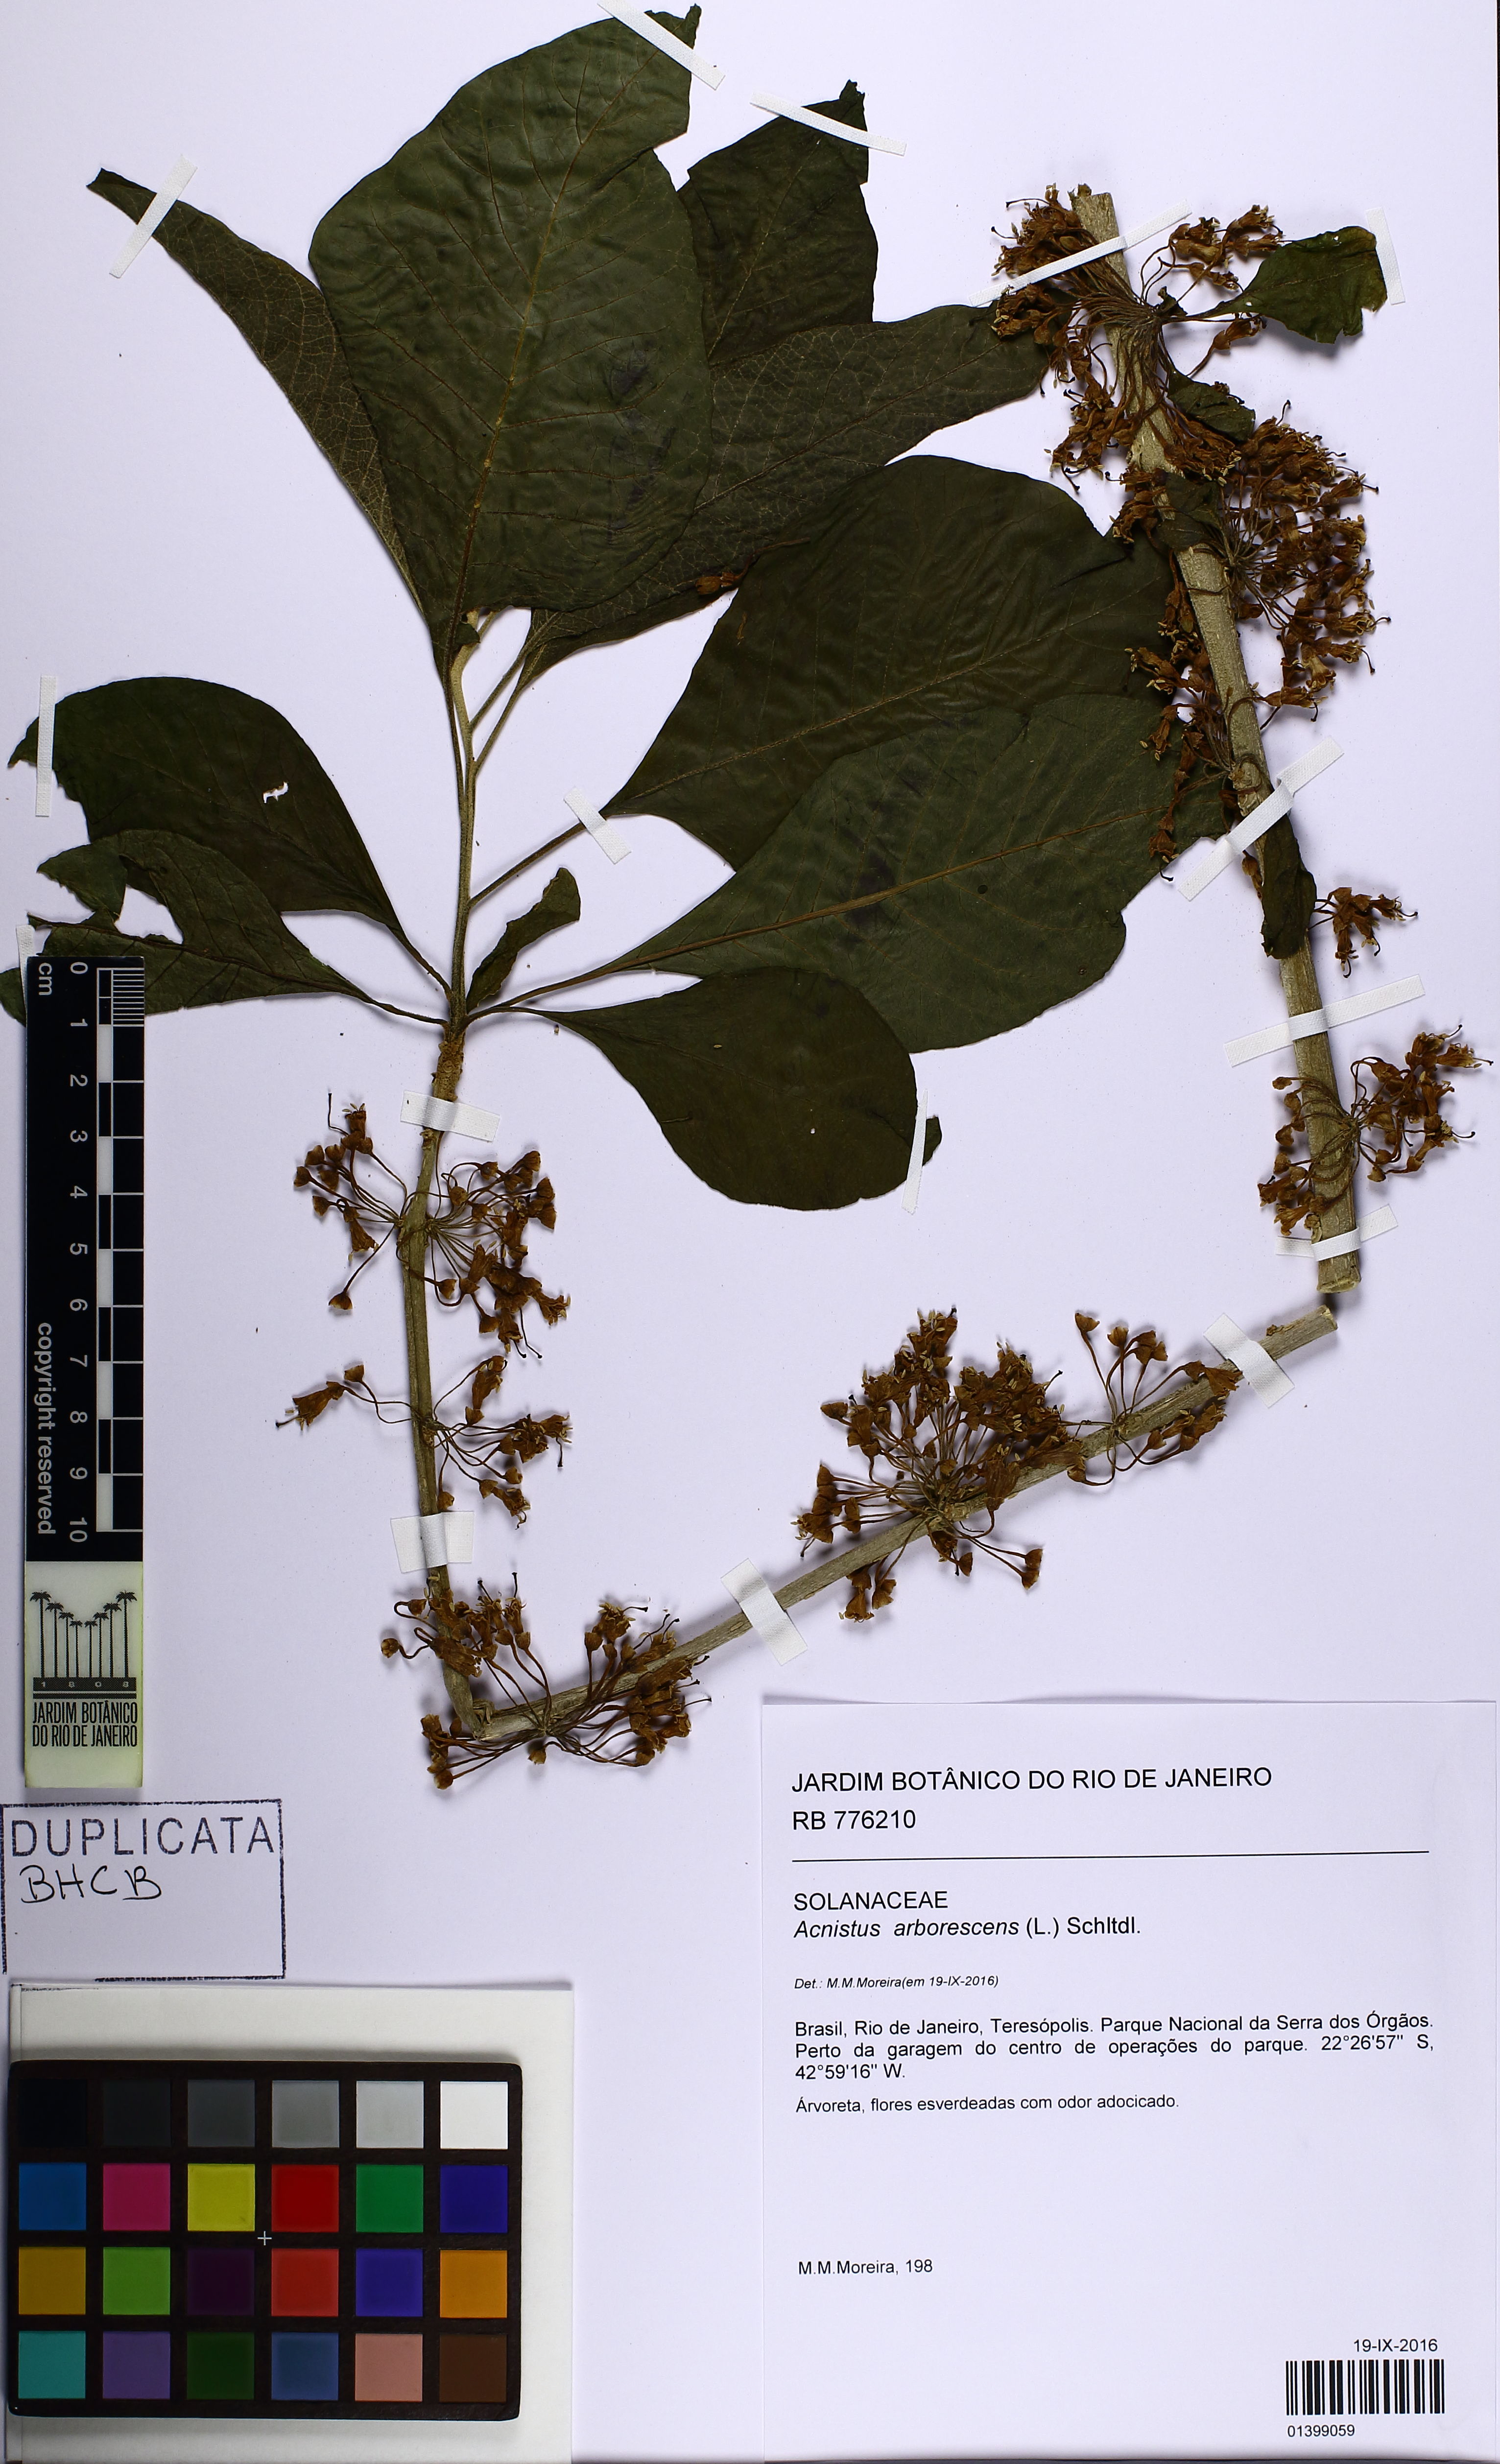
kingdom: Plantae
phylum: Tracheophyta
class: Magnoliopsida
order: Solanales
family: Solanaceae
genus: Iochroma
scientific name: Iochroma arborescens
